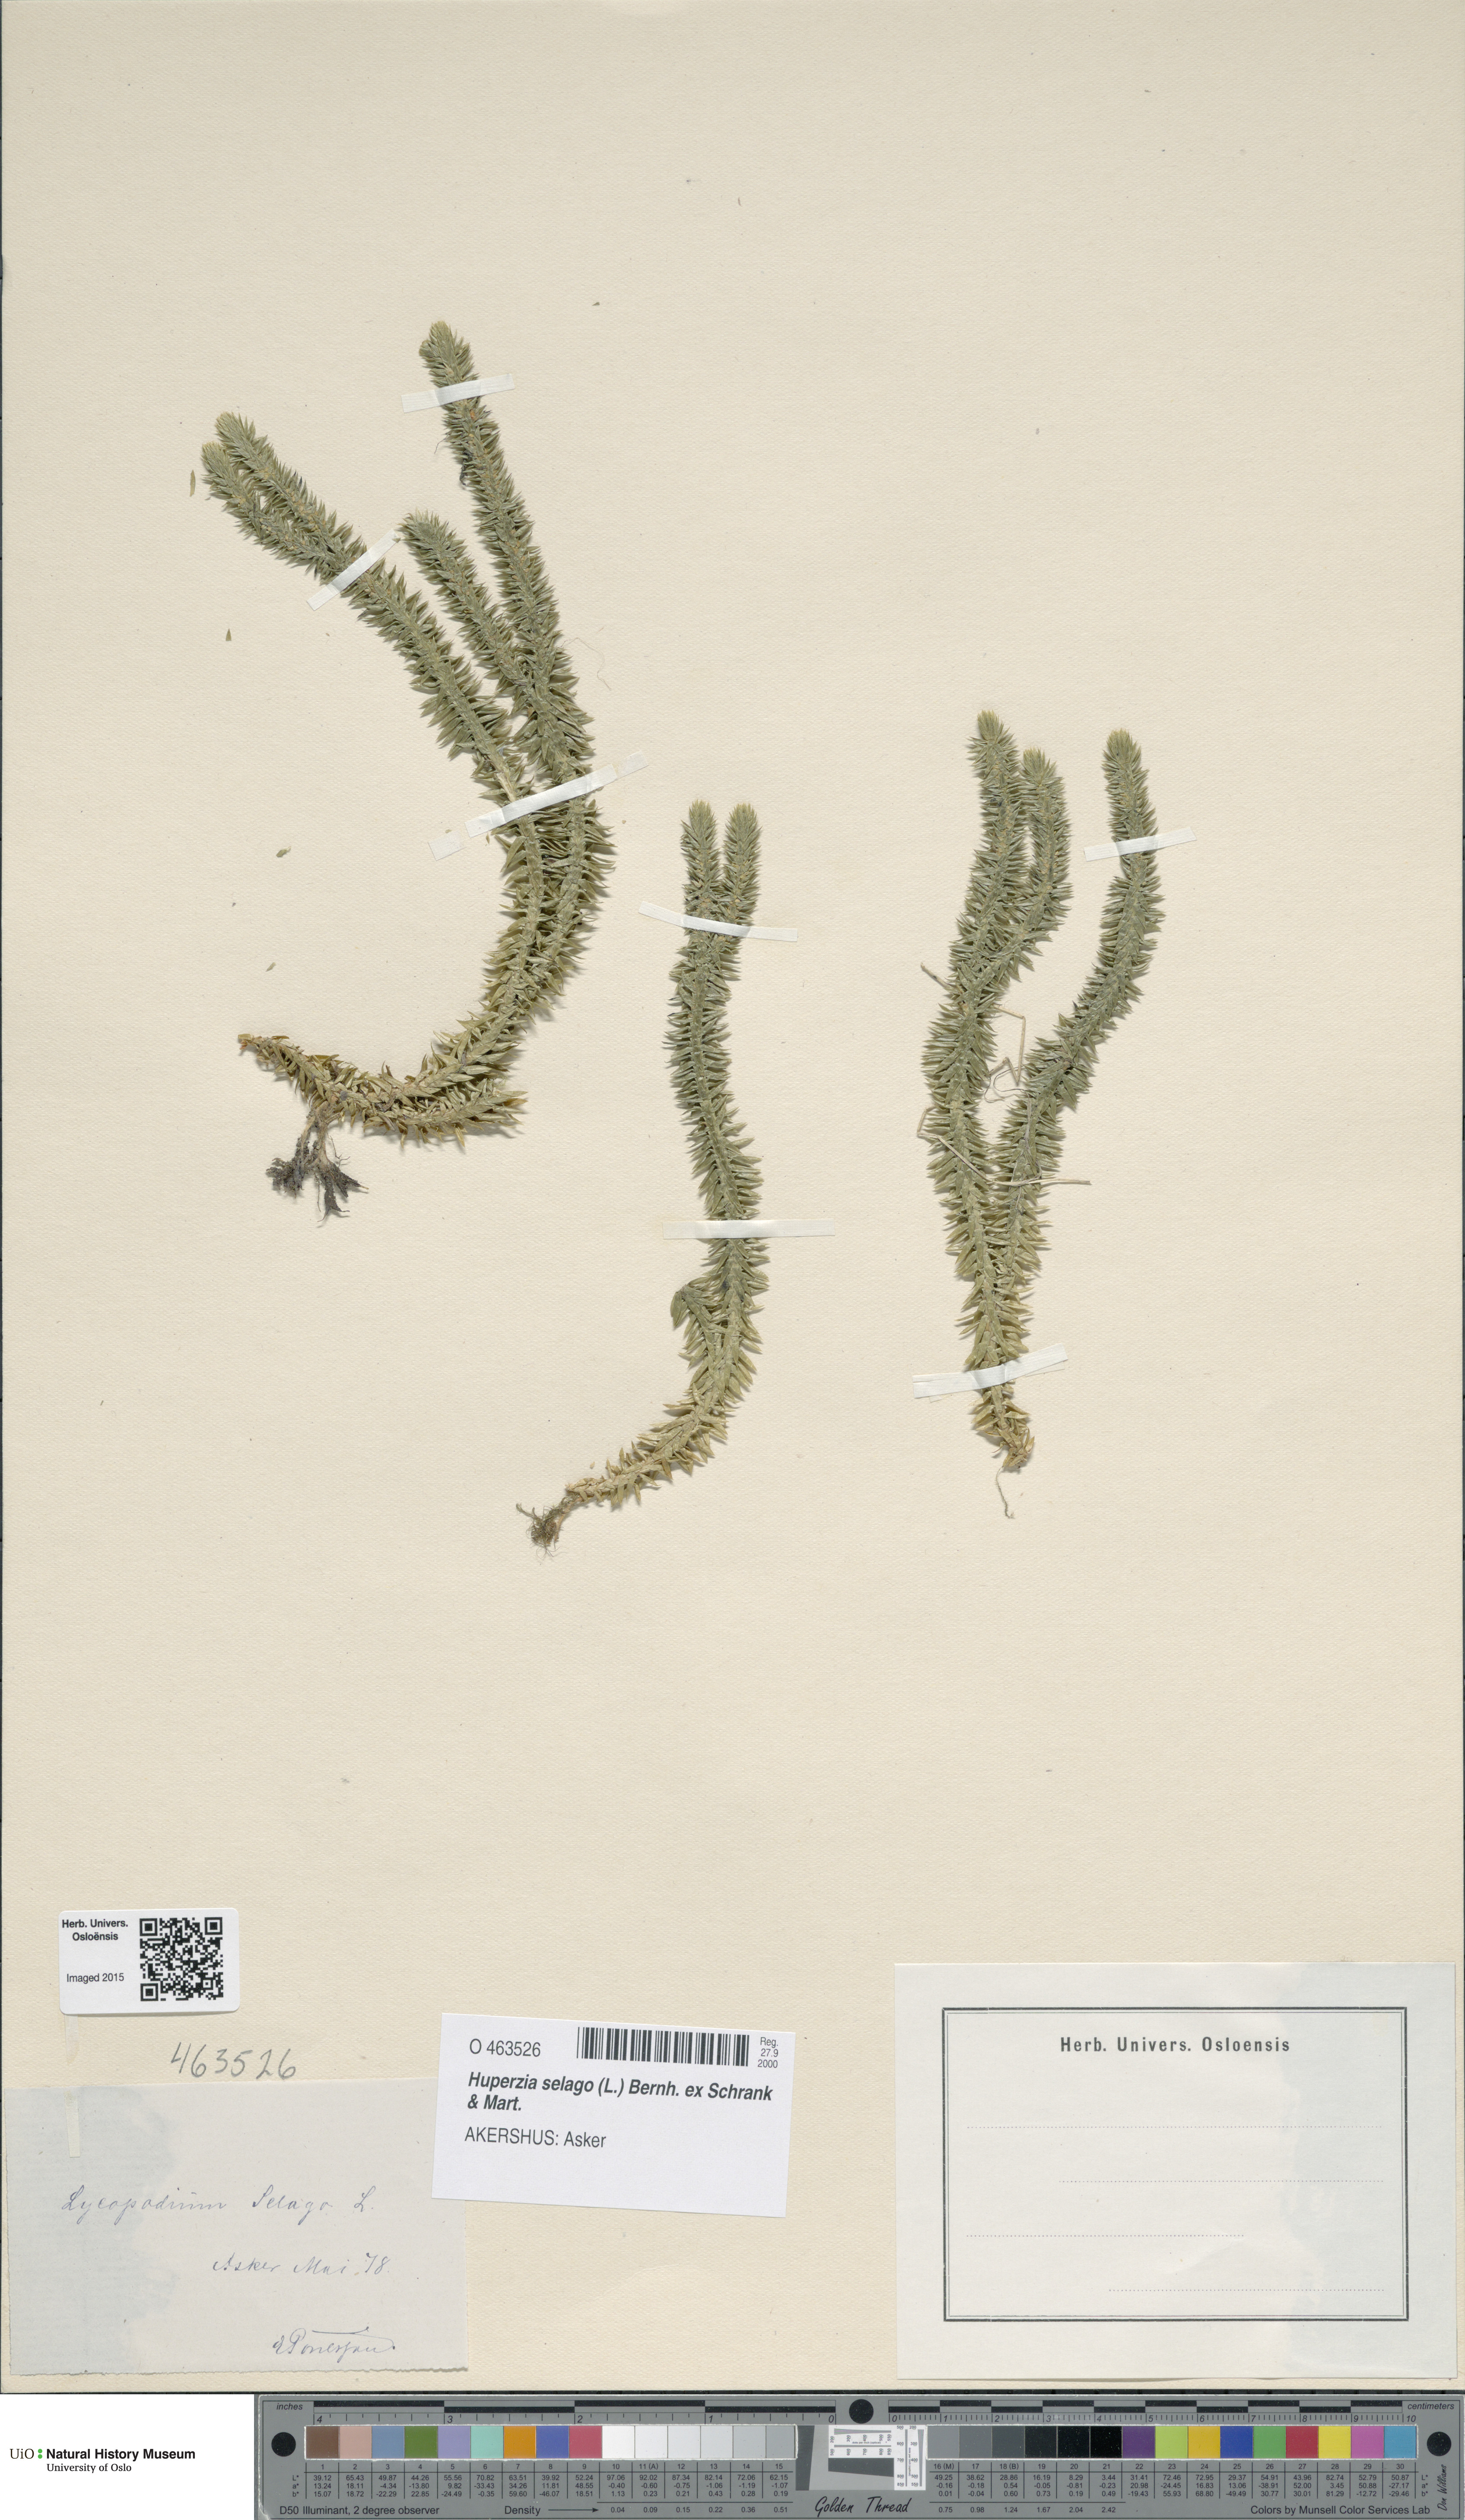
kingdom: Plantae
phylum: Tracheophyta
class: Lycopodiopsida
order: Lycopodiales
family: Lycopodiaceae
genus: Huperzia
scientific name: Huperzia selago
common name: Northern firmoss
